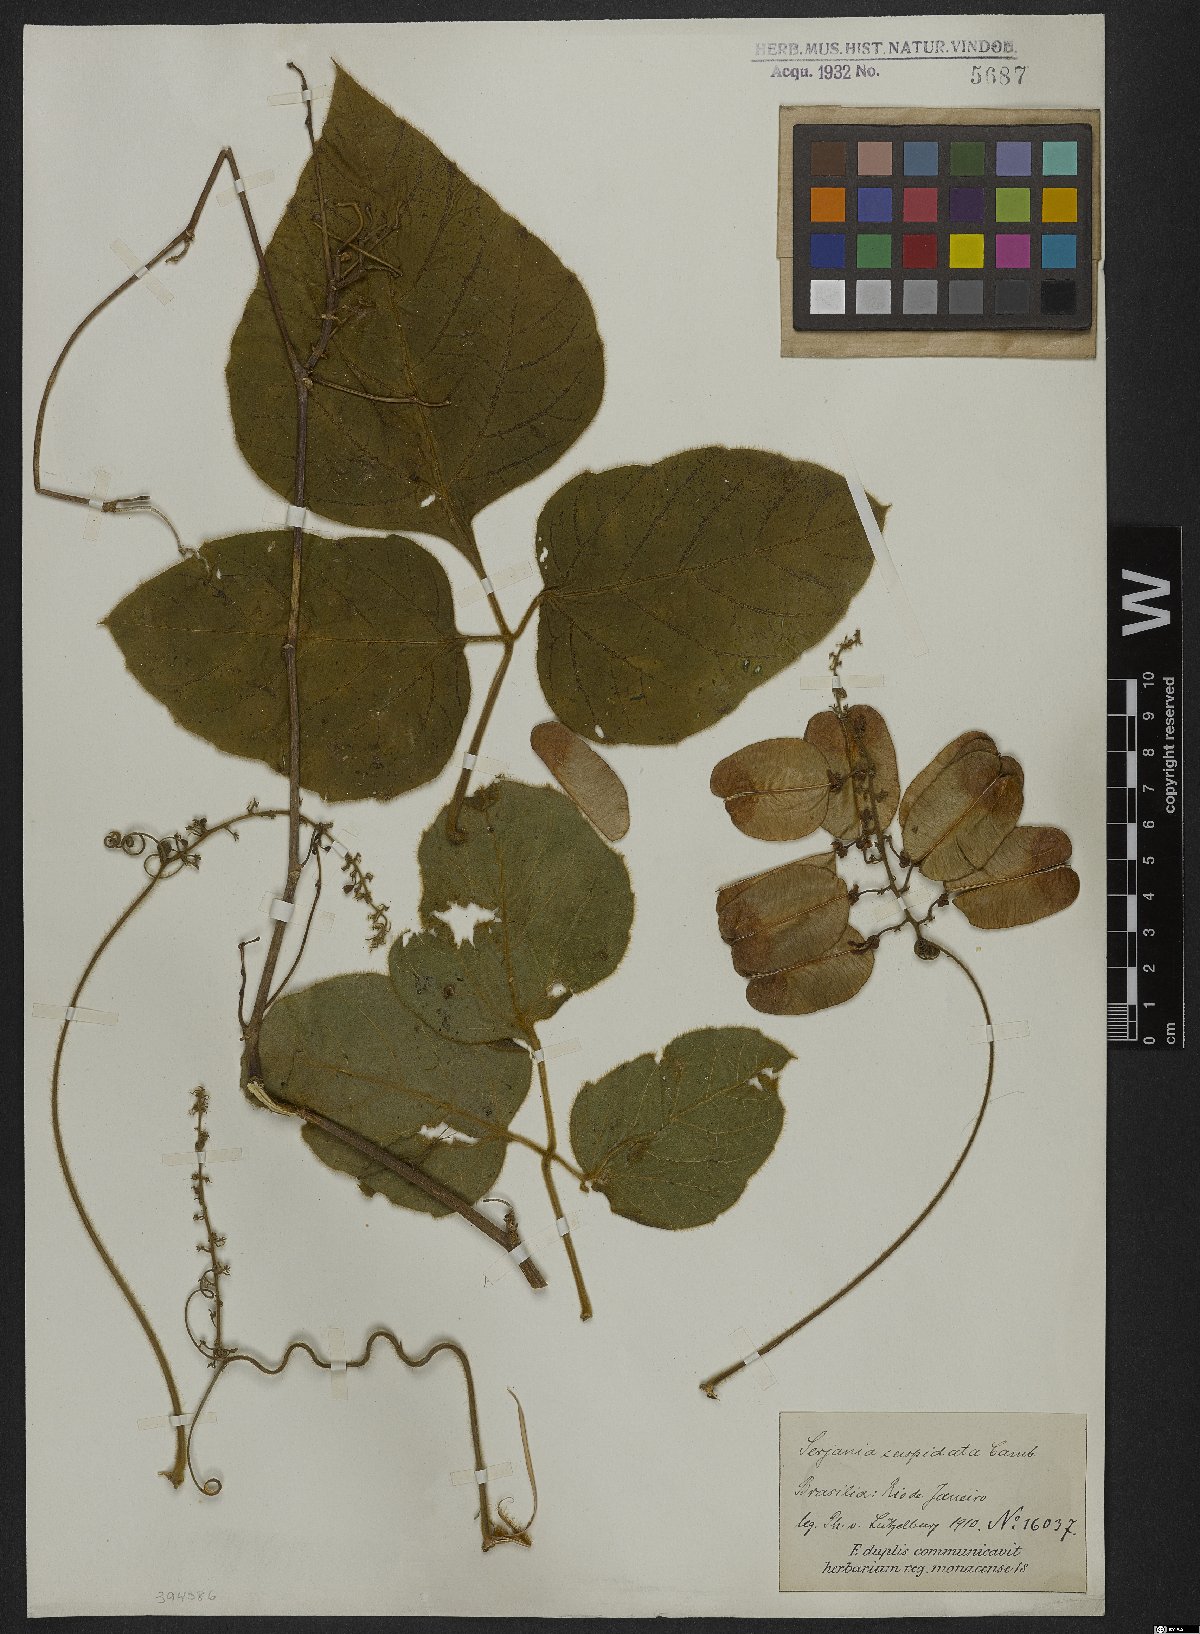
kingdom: Plantae
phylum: Tracheophyta
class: Magnoliopsida
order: Sapindales
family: Sapindaceae
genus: Serjania
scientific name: Serjania ferruginea
